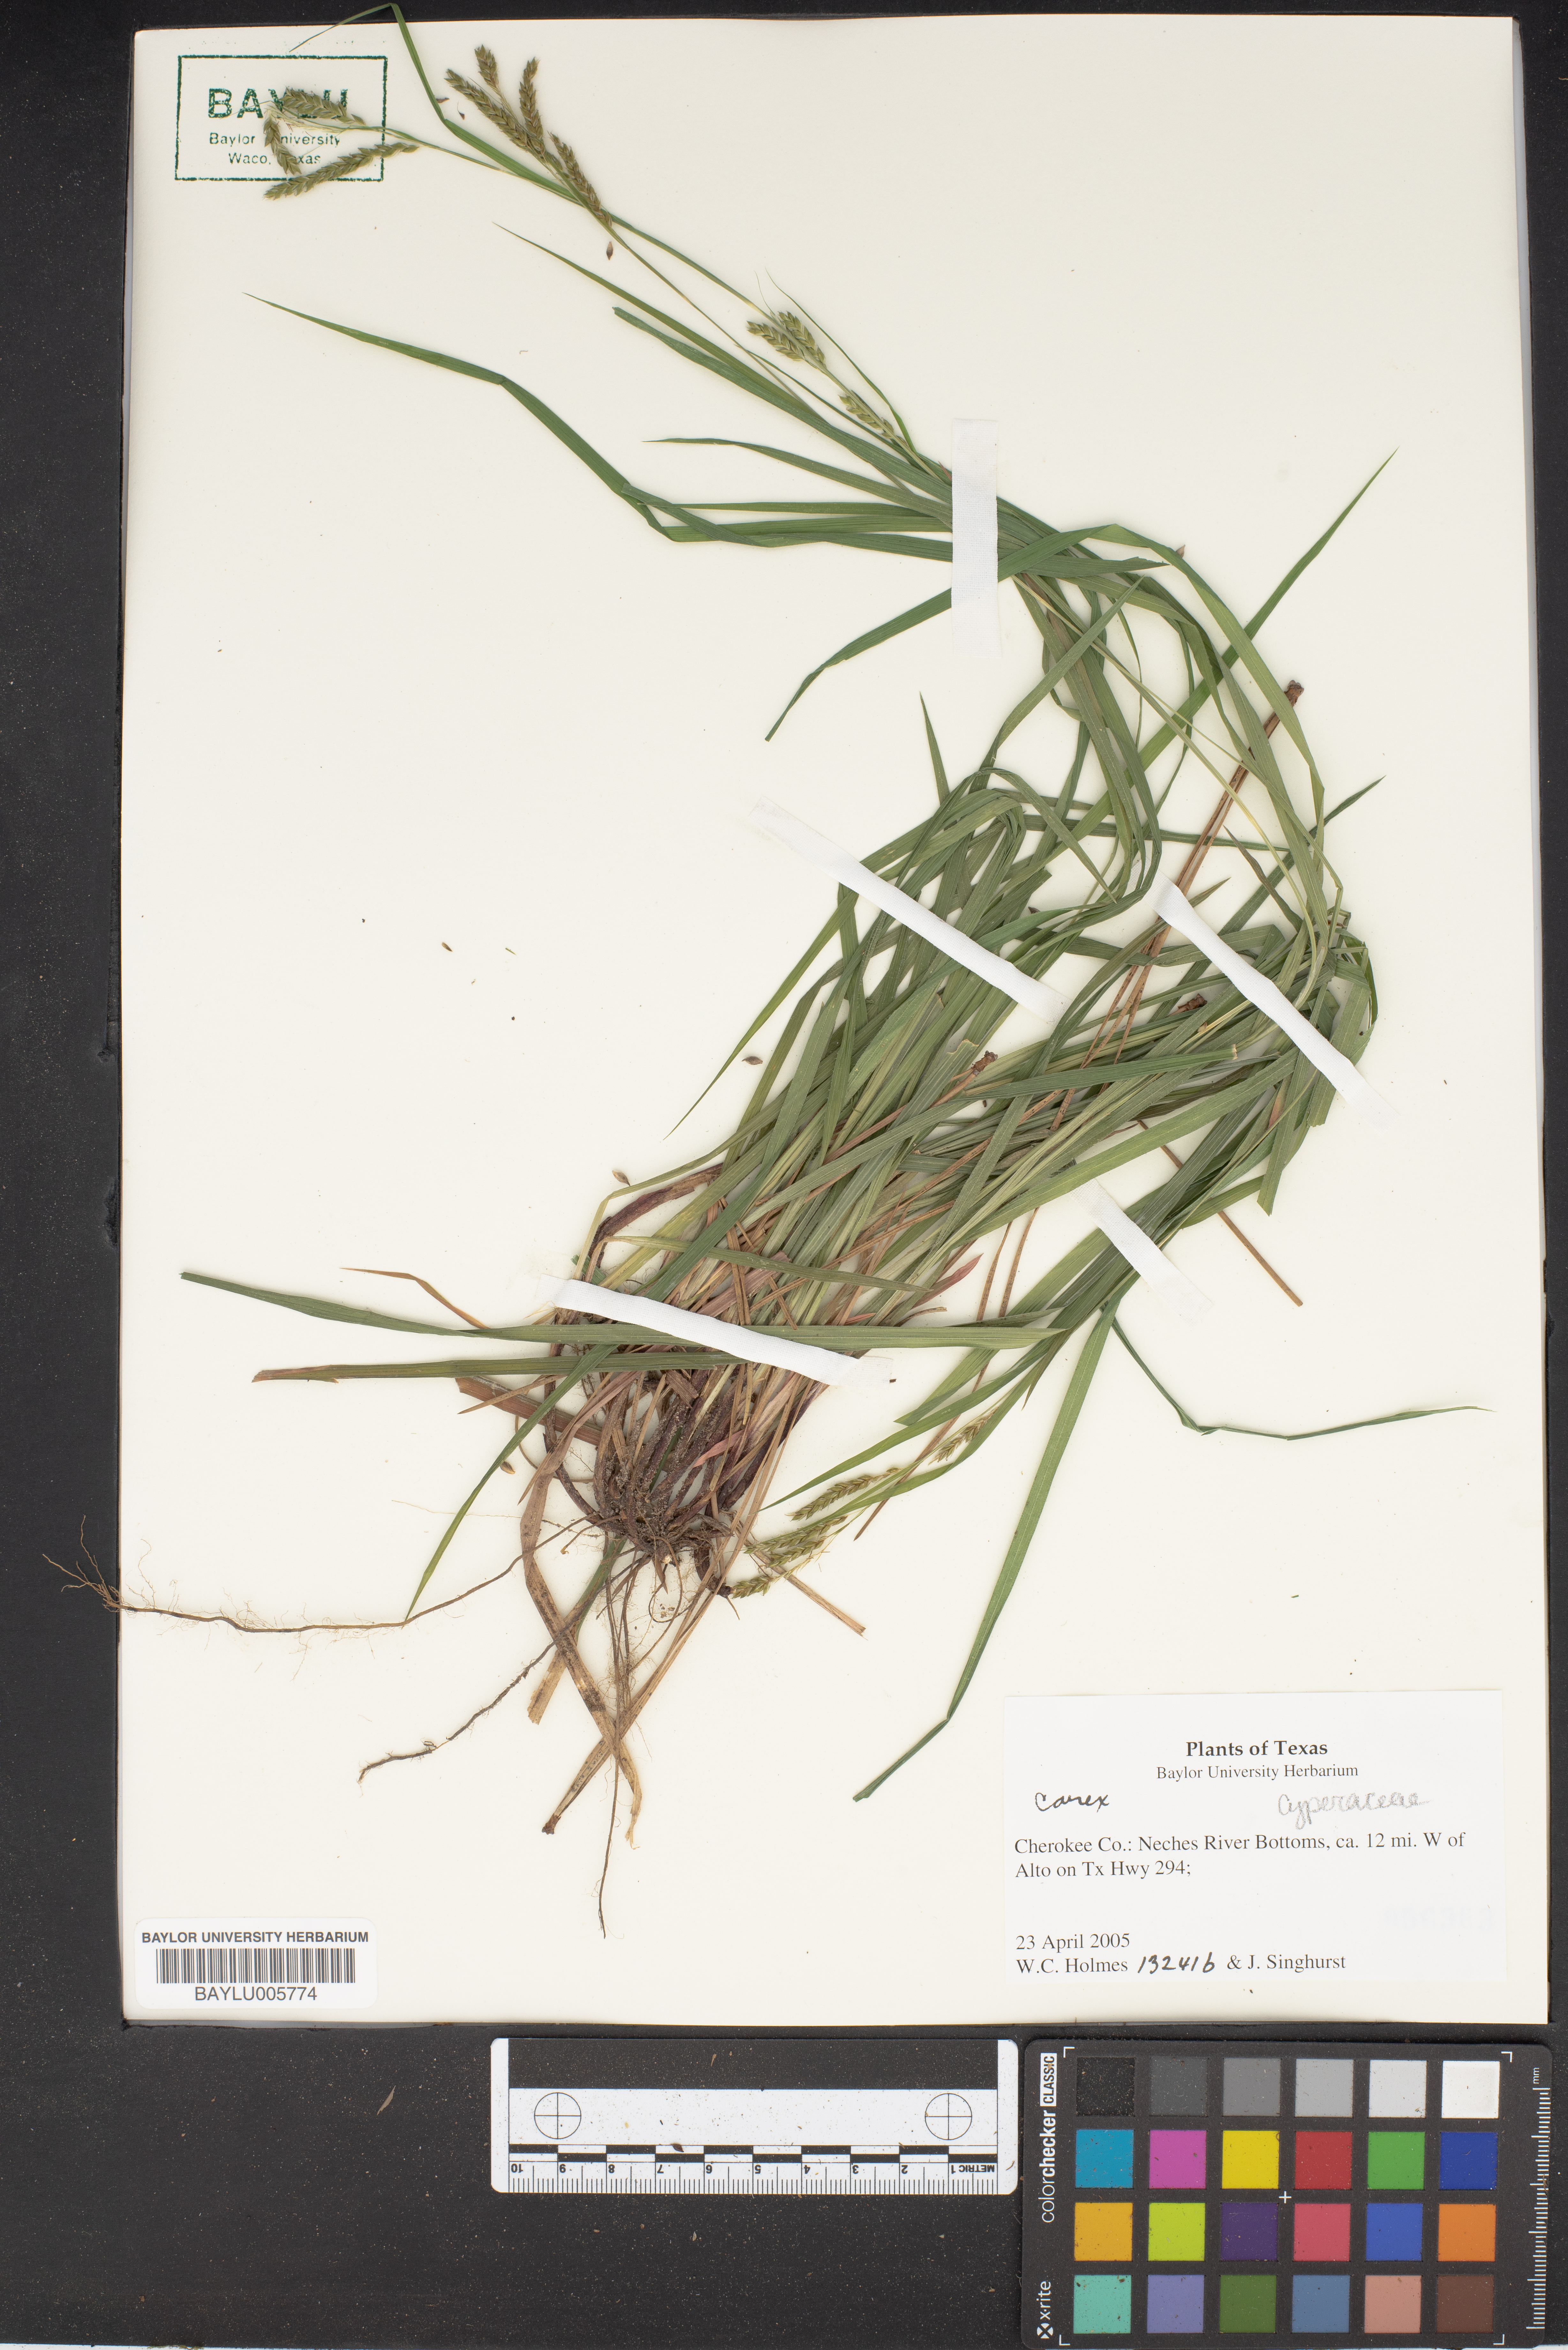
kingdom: Plantae
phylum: Tracheophyta
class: Liliopsida
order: Poales
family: Cyperaceae
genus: Carex
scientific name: Carex
